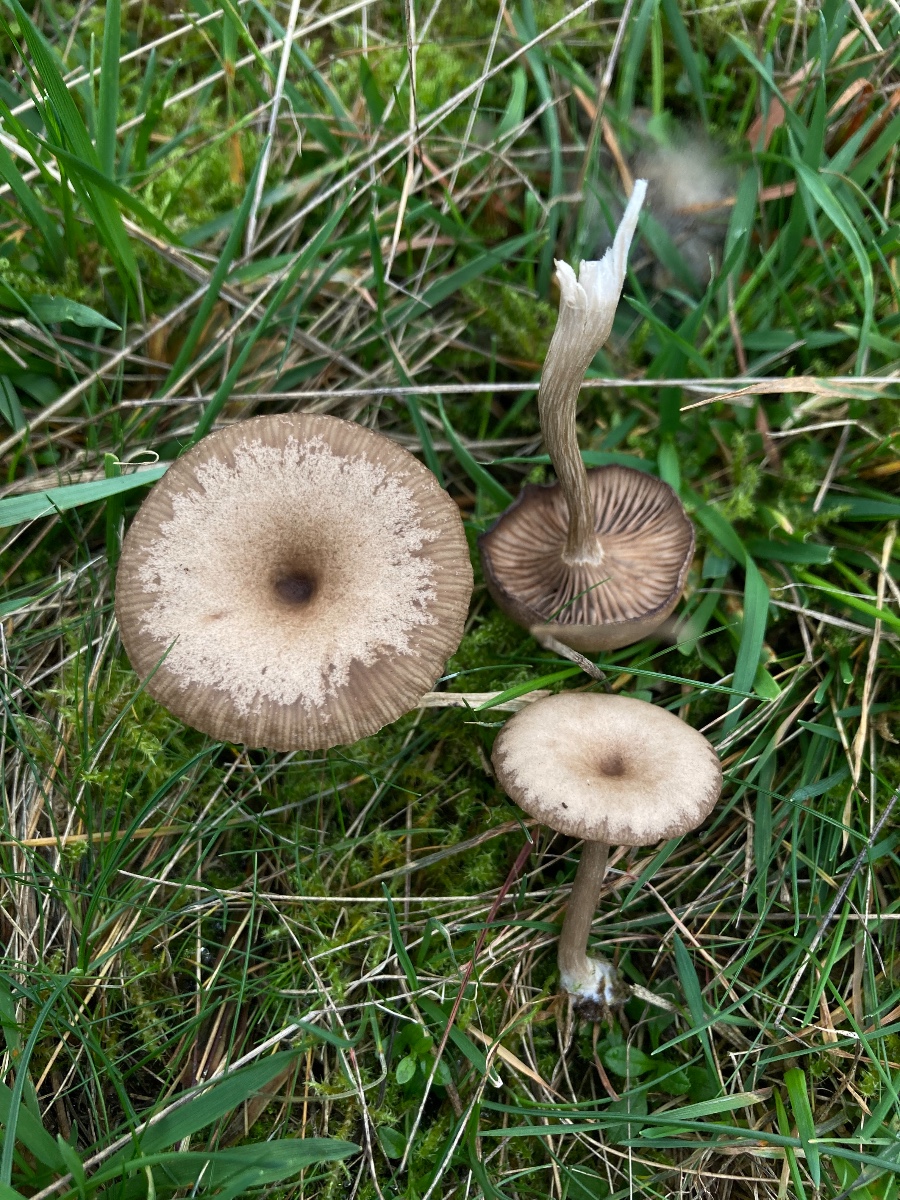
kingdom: Fungi
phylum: Basidiomycota
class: Agaricomycetes
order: Agaricales
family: Pseudoclitocybaceae
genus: Pseudoclitocybe
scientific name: Pseudoclitocybe expallens
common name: lille bægertragthat
